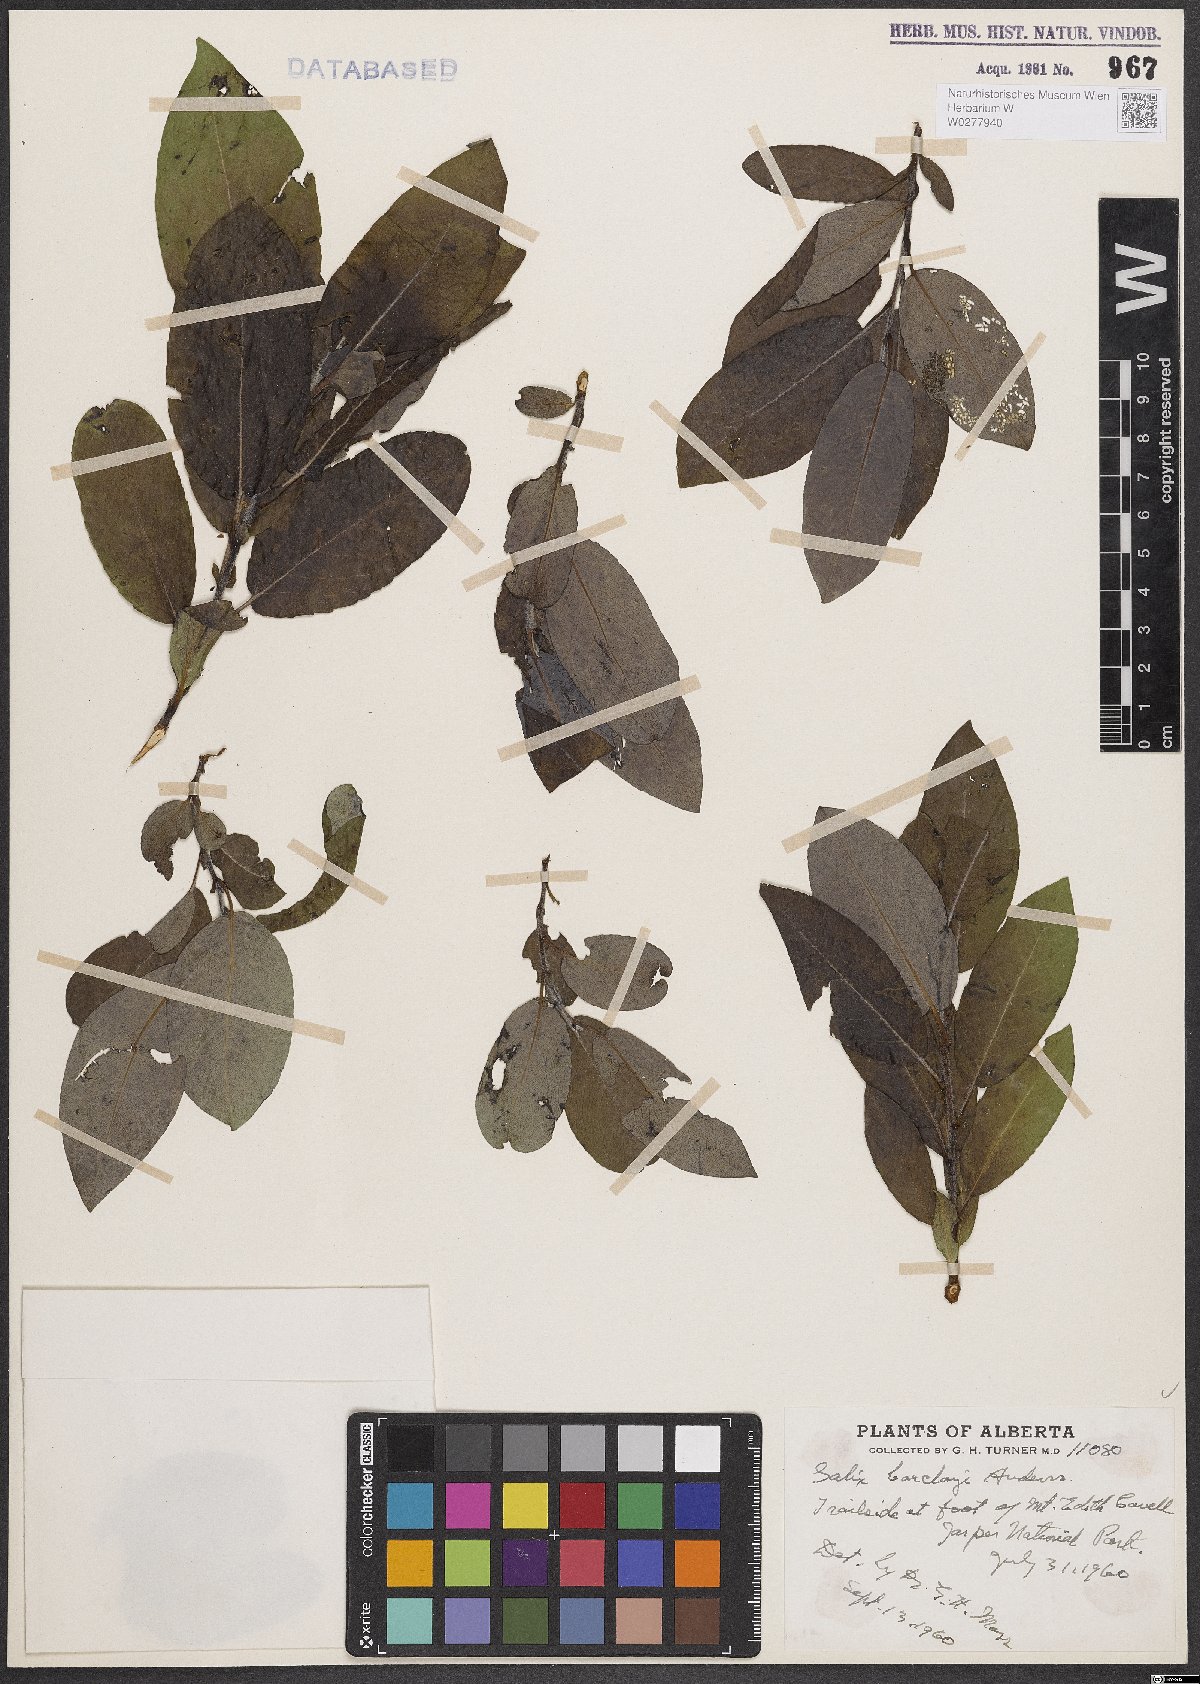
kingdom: Plantae
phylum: Tracheophyta
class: Magnoliopsida
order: Malpighiales
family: Salicaceae
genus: Salix
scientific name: Salix barclayi
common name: Mountain willow
